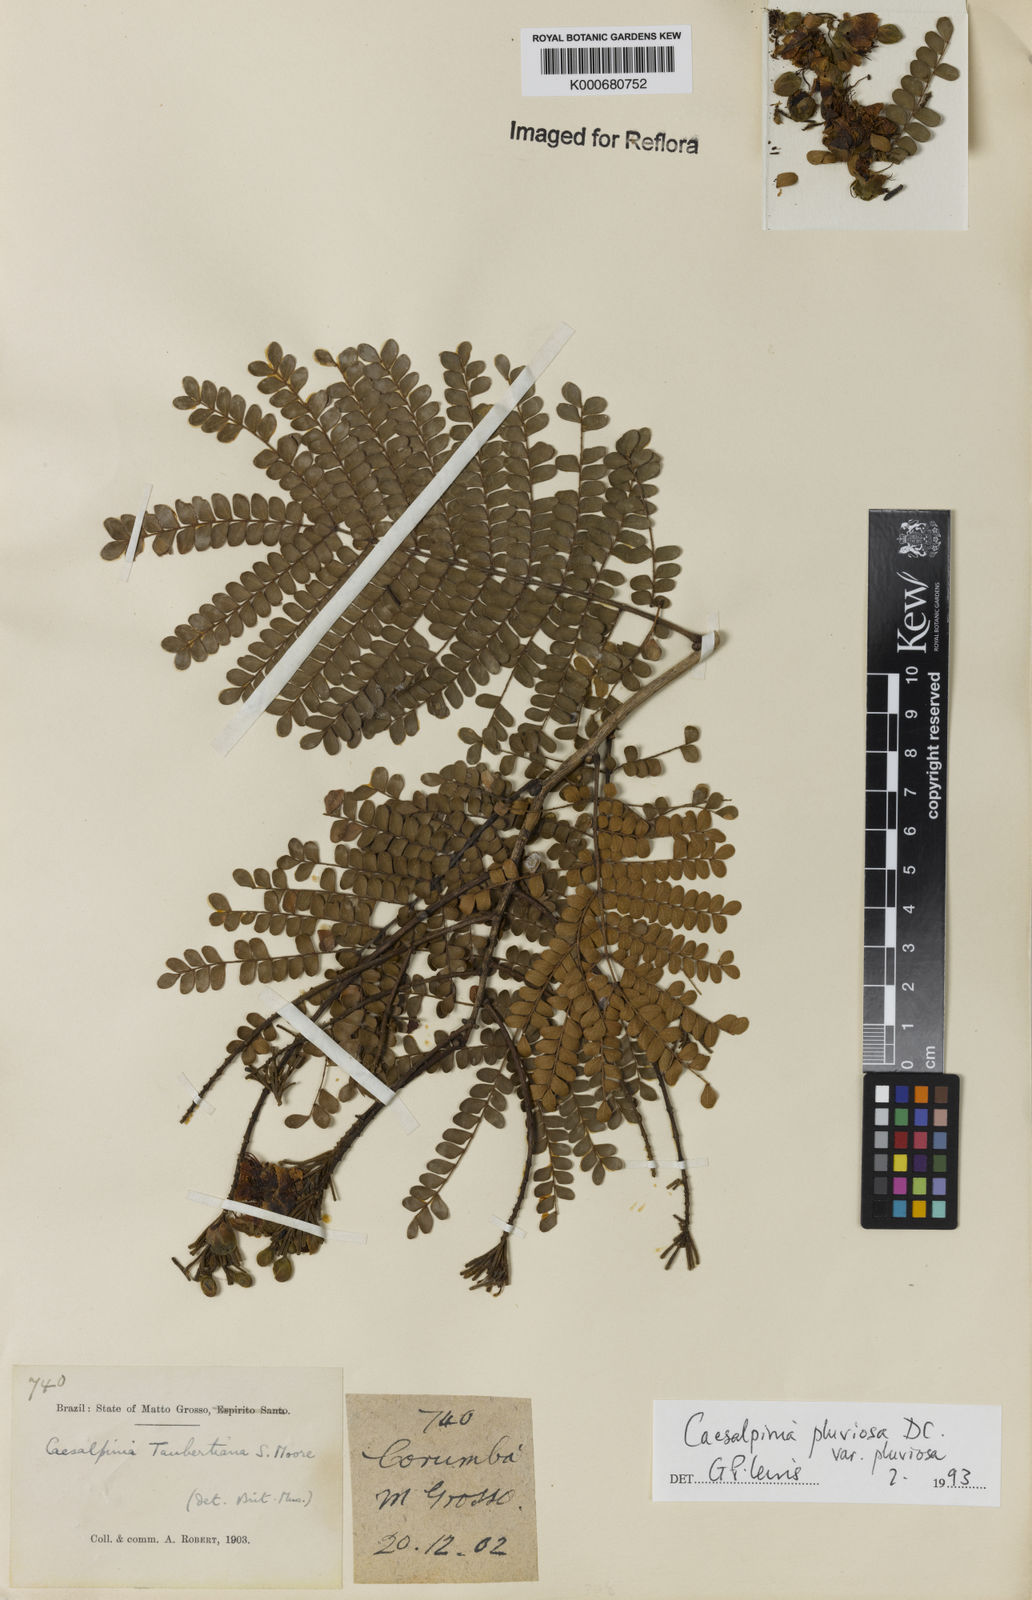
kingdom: Plantae
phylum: Tracheophyta
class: Magnoliopsida
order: Fabales
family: Fabaceae
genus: Cenostigma
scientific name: Cenostigma pluviosum
